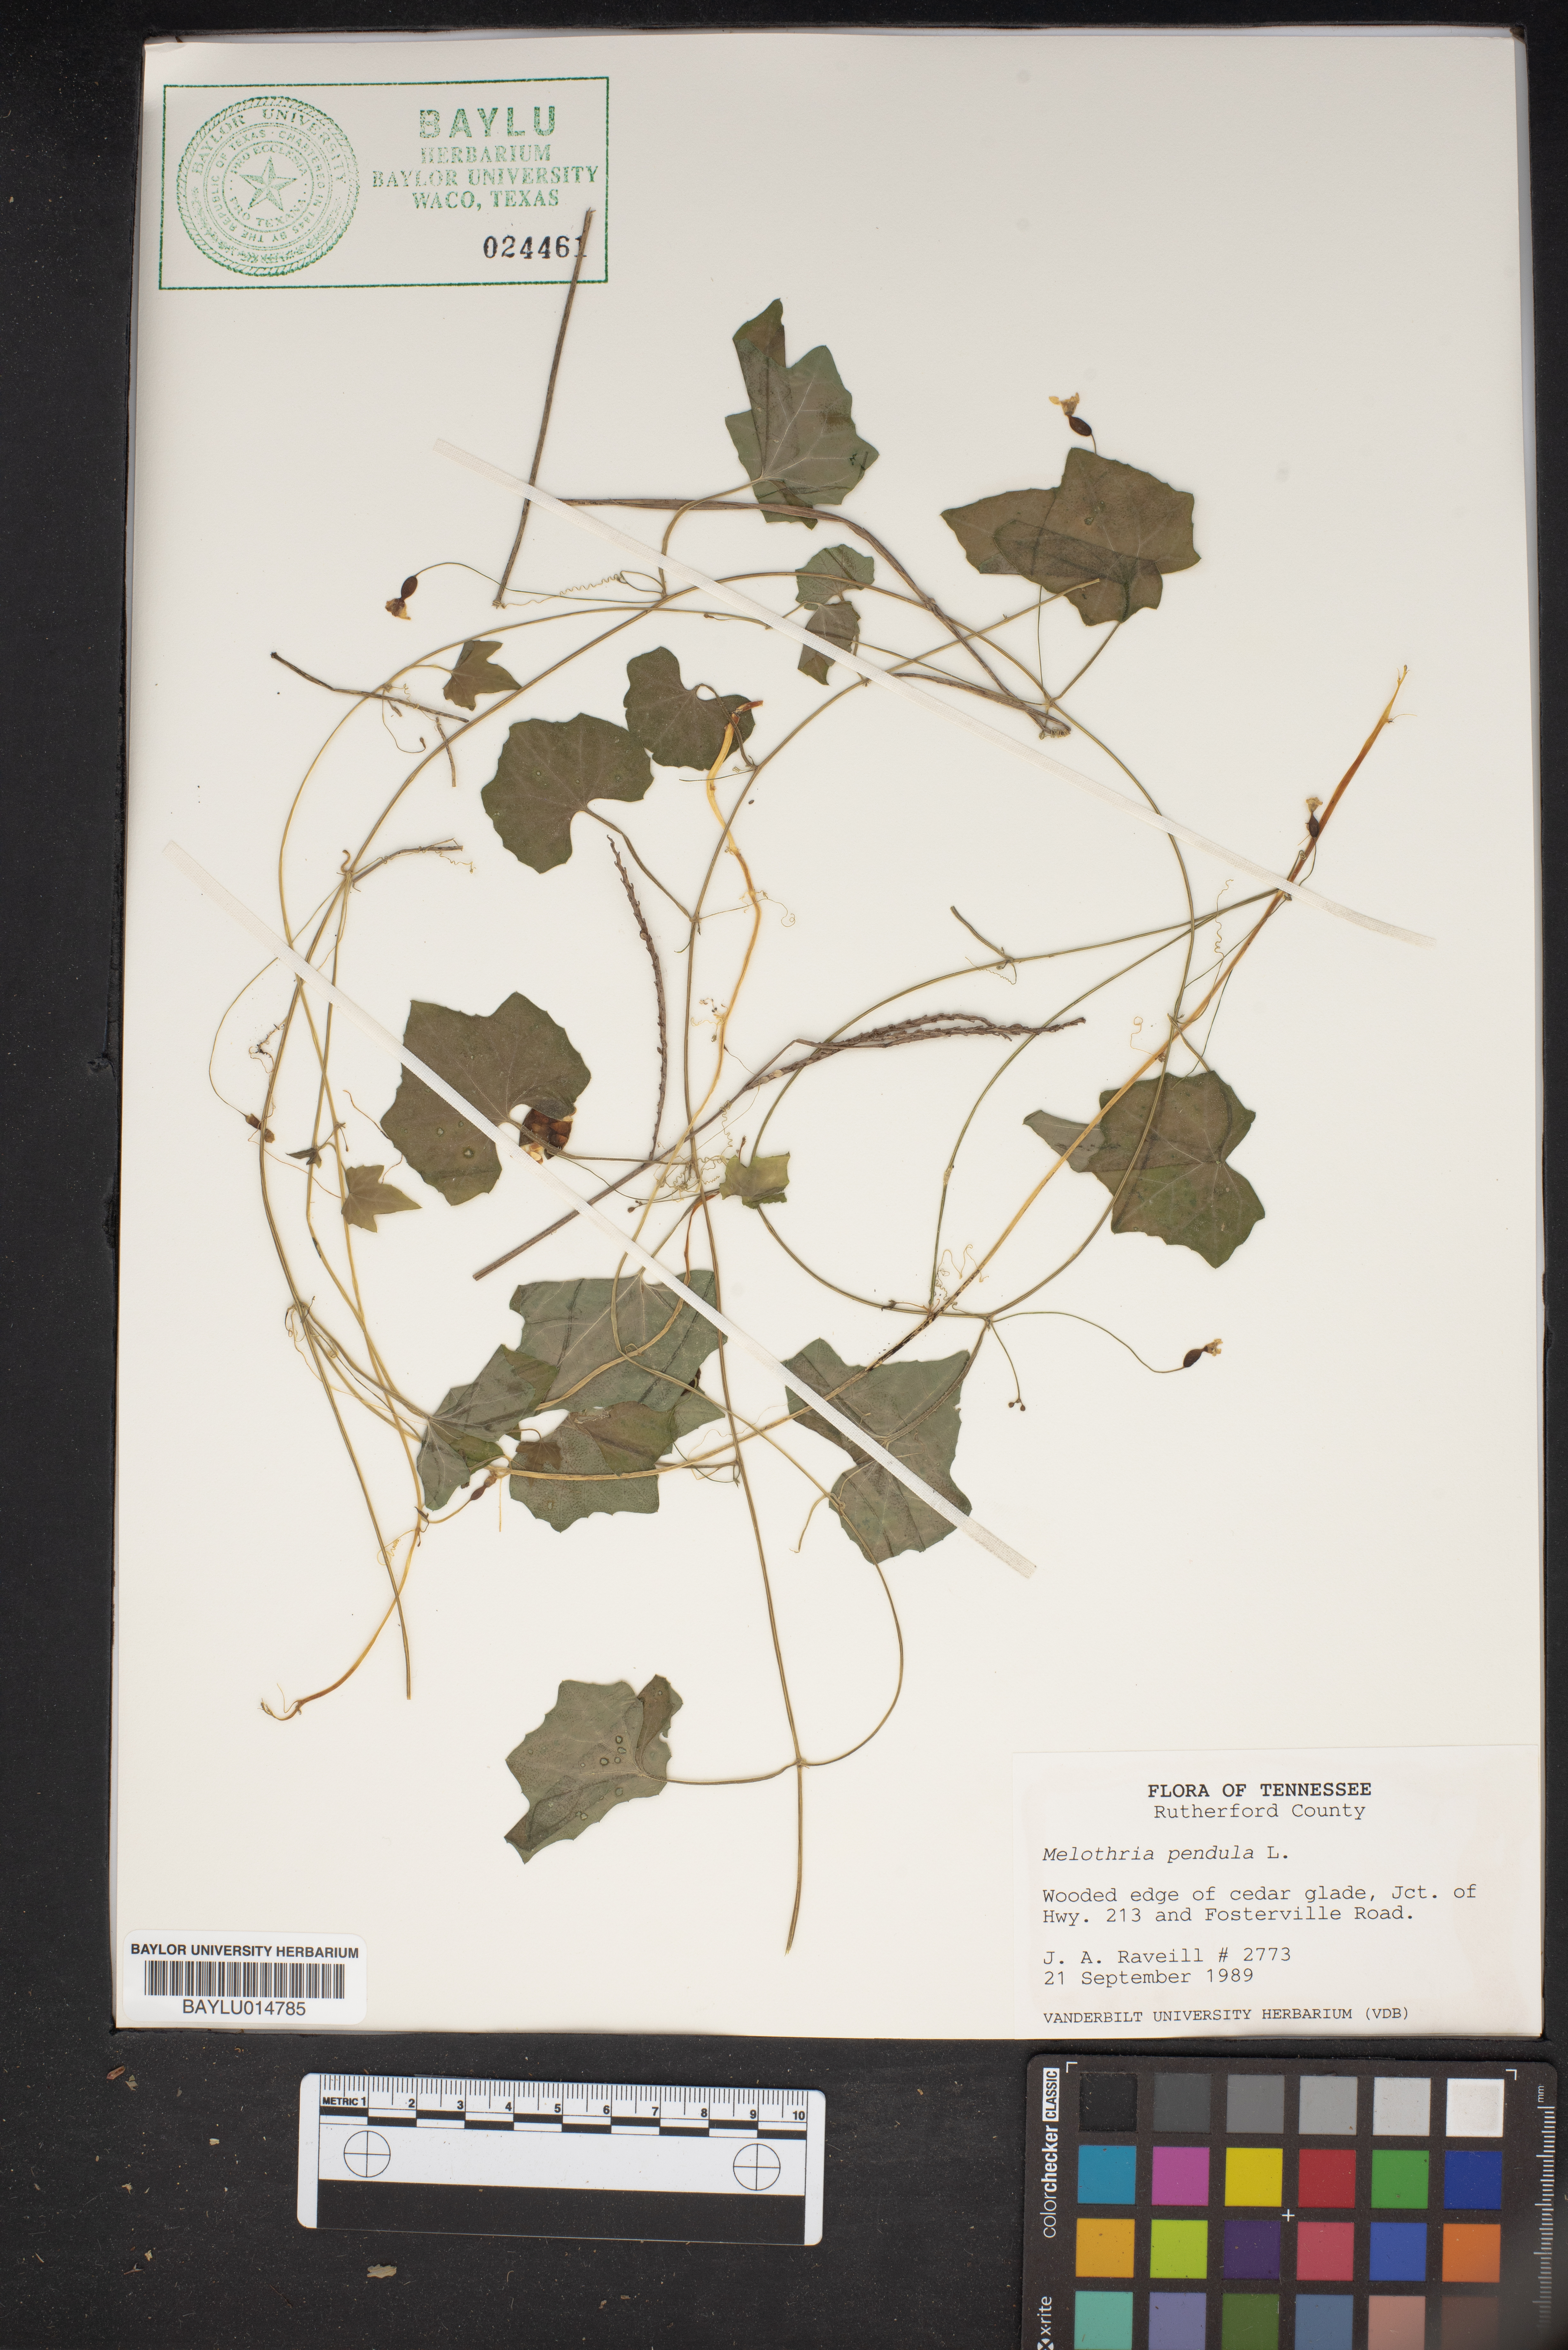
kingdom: Plantae
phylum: Tracheophyta
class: Magnoliopsida
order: Cucurbitales
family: Cucurbitaceae
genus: Melothria
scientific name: Melothria pendula
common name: Creeping-cucumber
